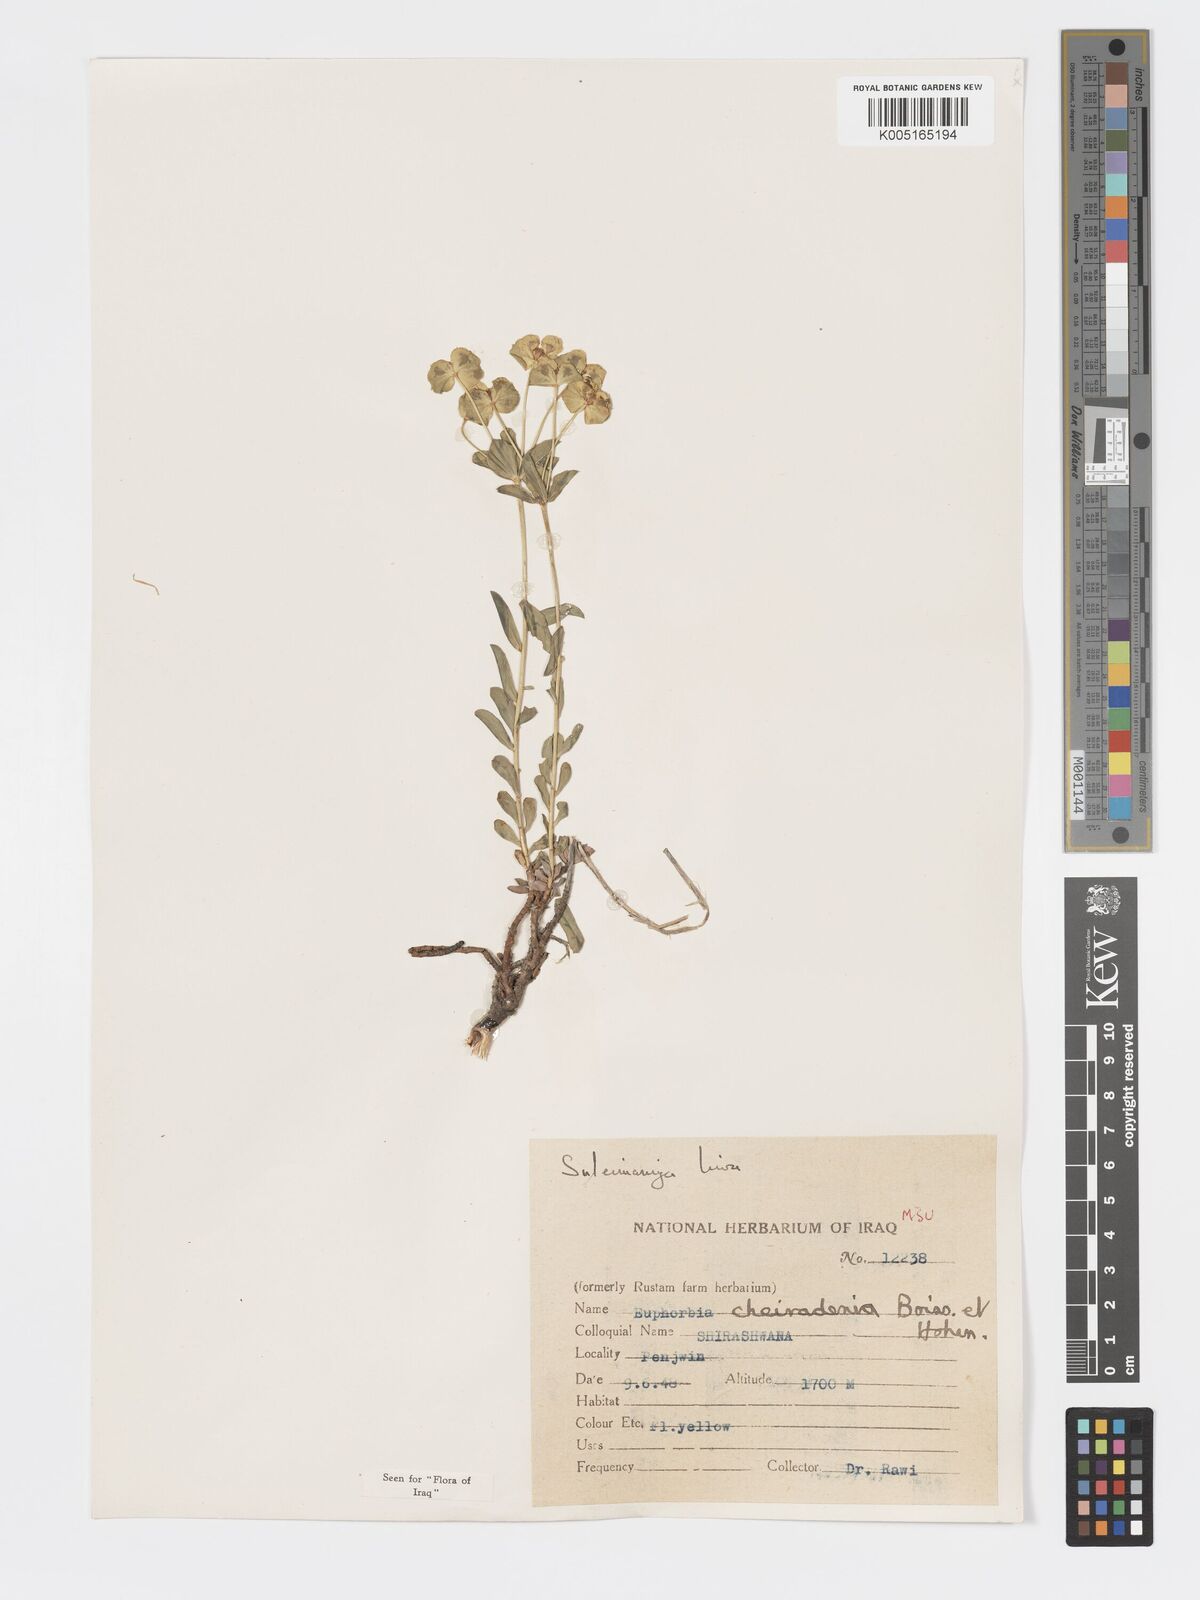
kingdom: Plantae
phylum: Tracheophyta
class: Magnoliopsida
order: Malpighiales
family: Euphorbiaceae
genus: Euphorbia
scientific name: Euphorbia cheiradenia
